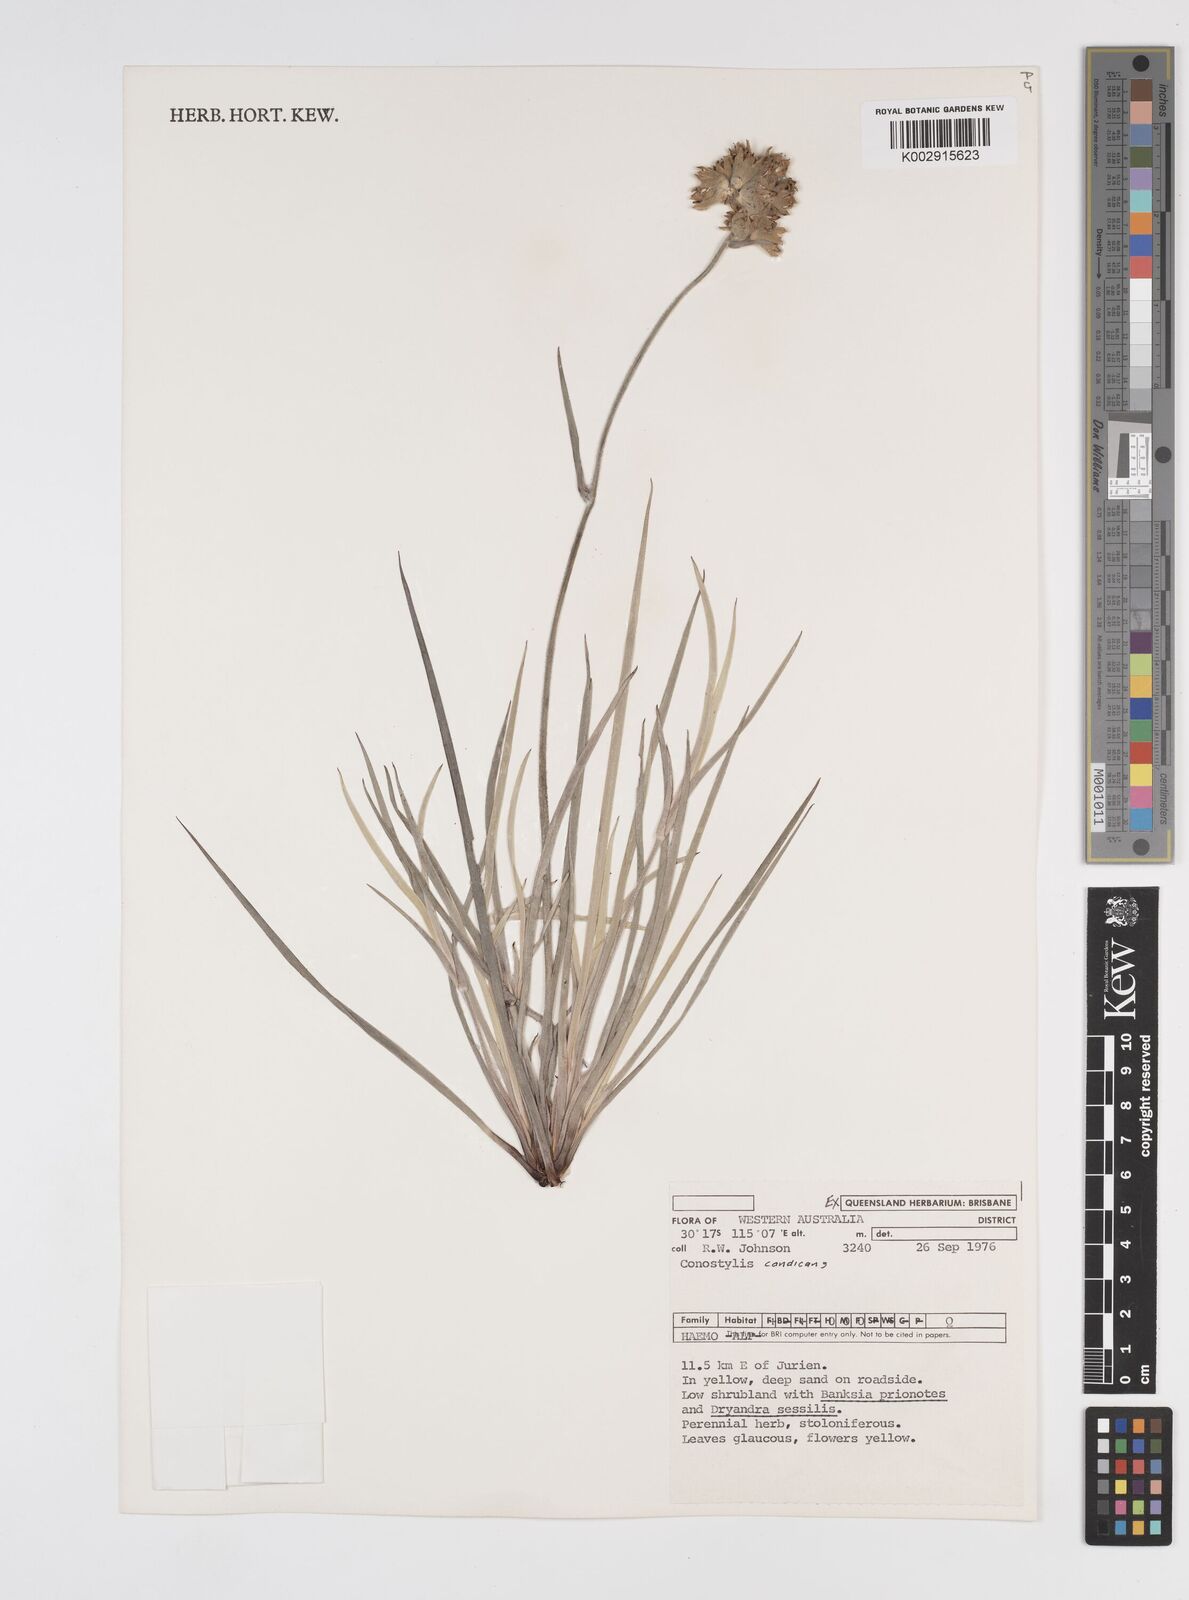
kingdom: Plantae
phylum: Tracheophyta
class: Liliopsida
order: Commelinales
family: Haemodoraceae
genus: Conostylis
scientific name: Conostylis candicans
